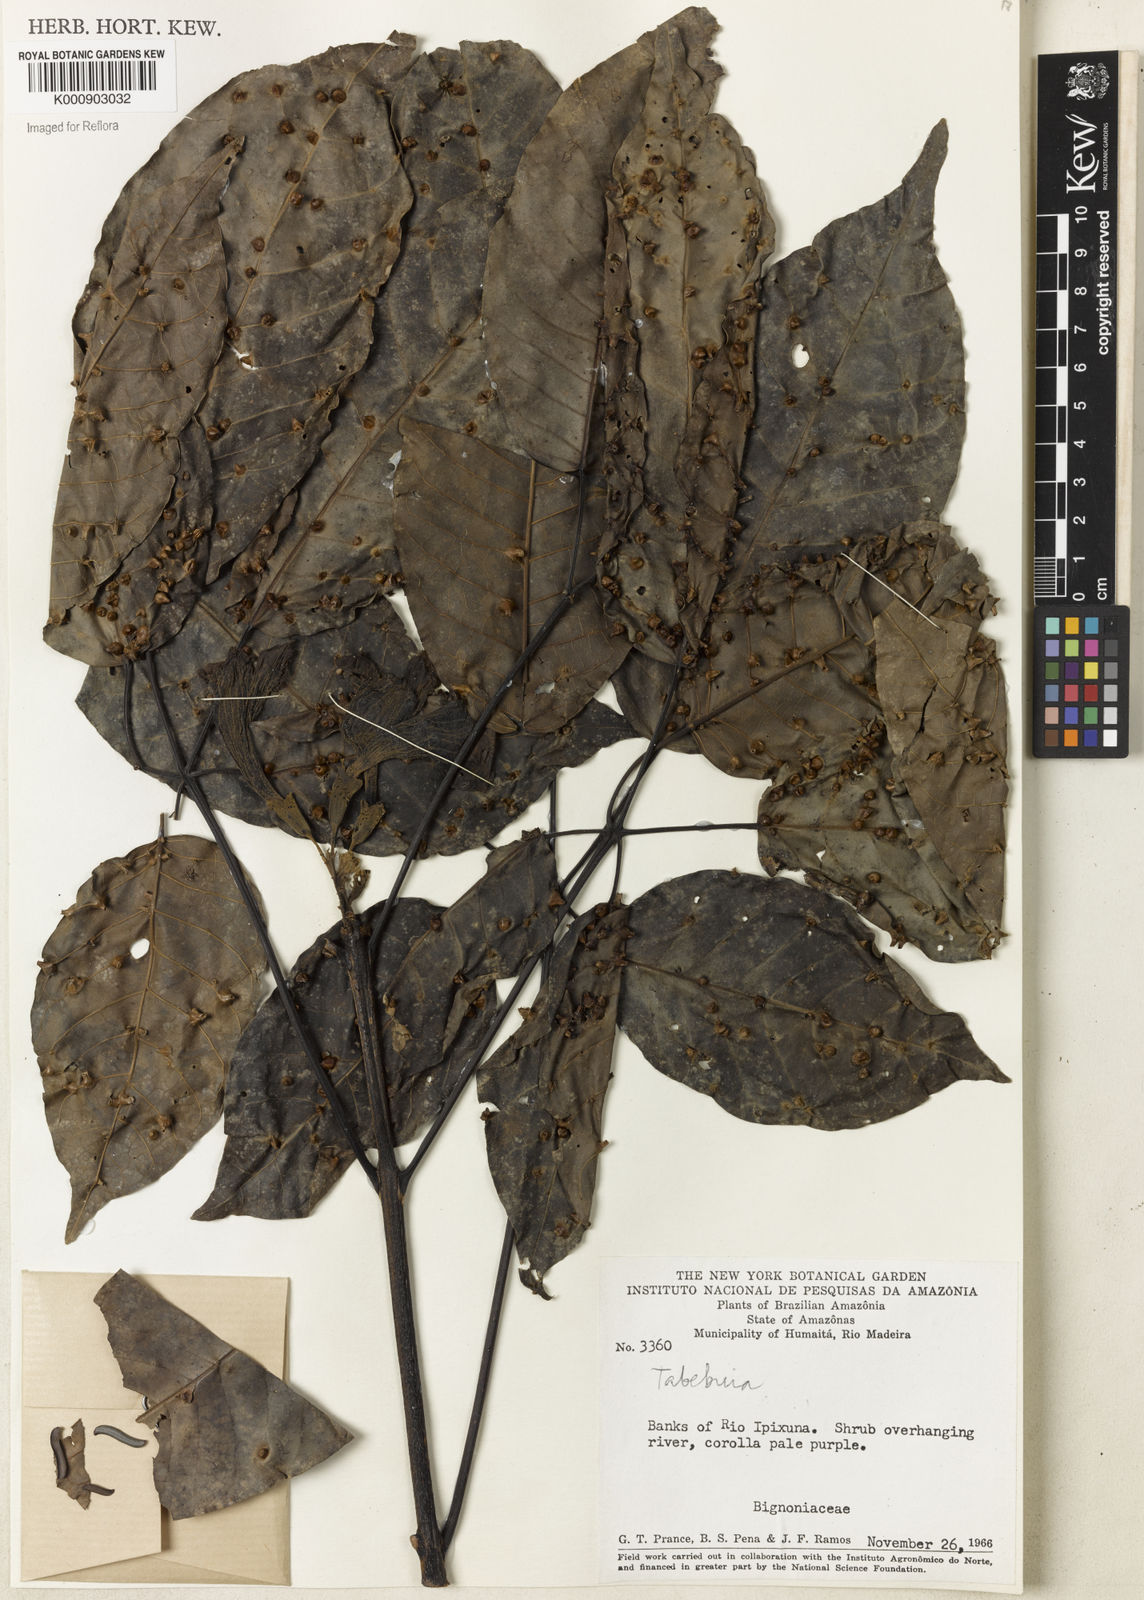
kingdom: Plantae
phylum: Tracheophyta
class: Magnoliopsida
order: Lamiales
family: Bignoniaceae
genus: Tabebuia
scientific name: Tabebuia
